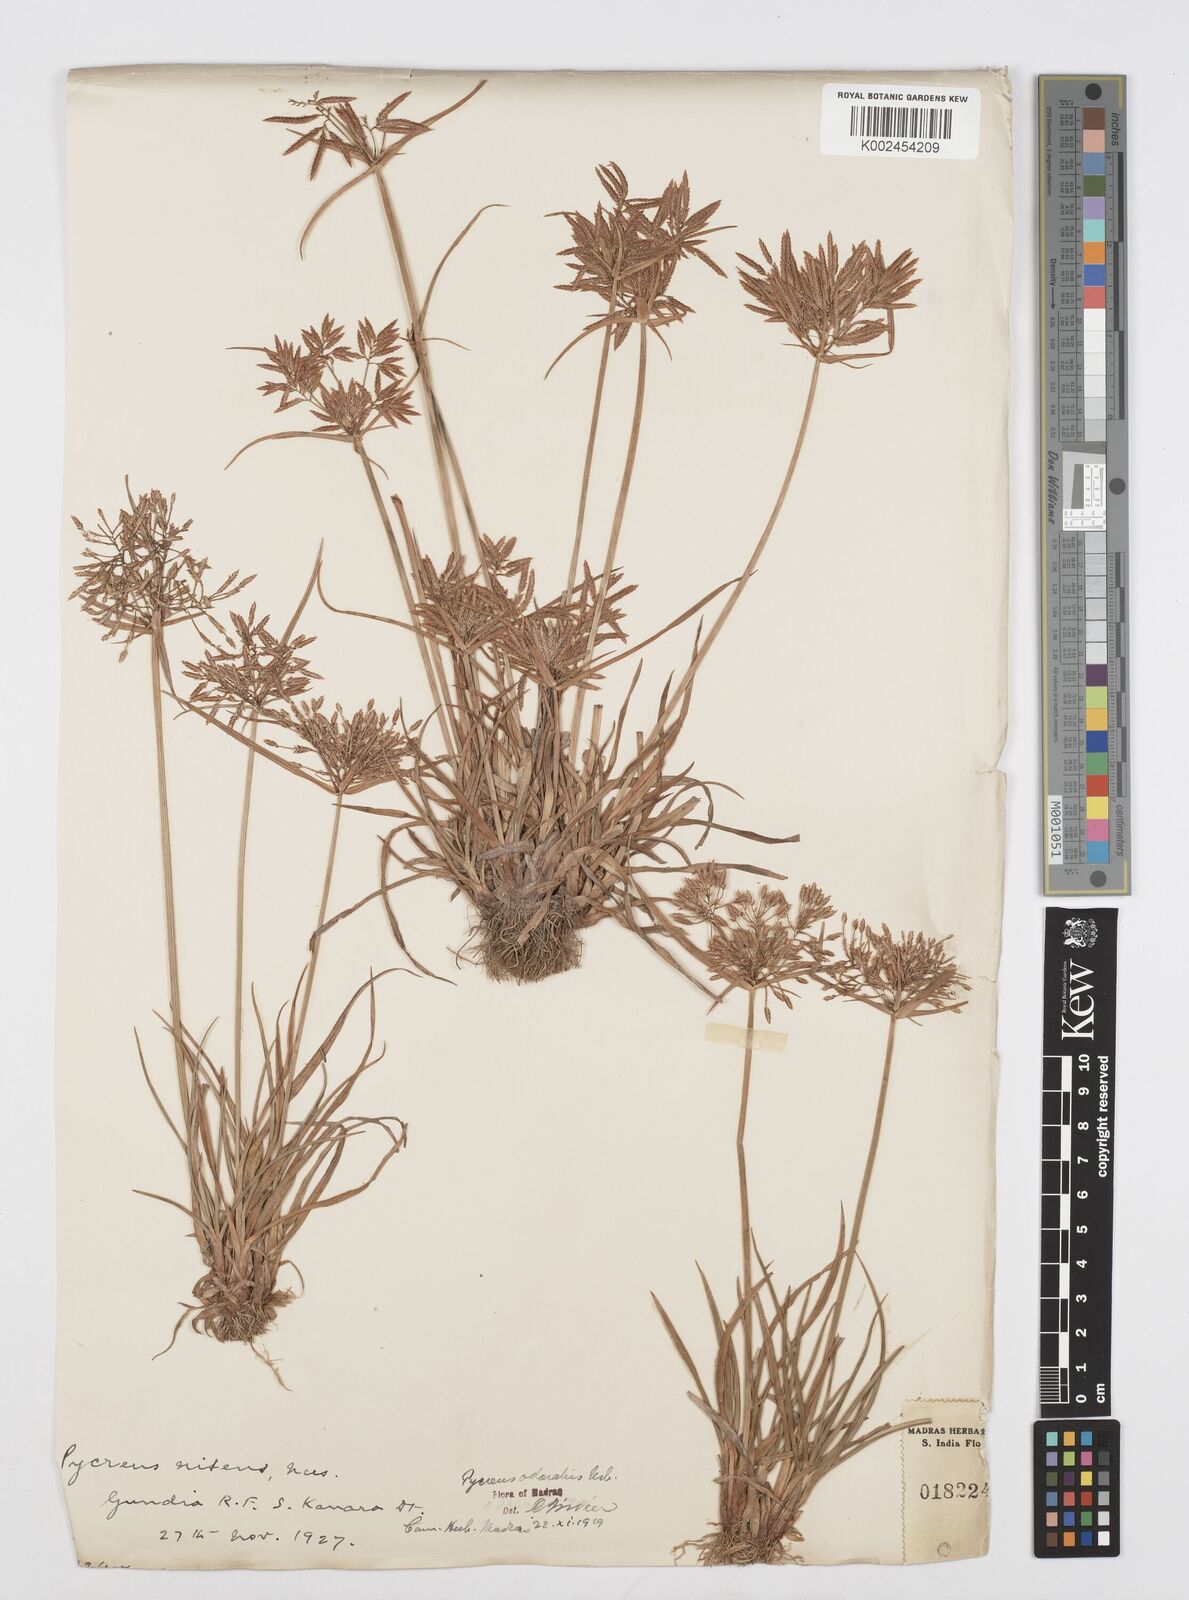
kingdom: Plantae
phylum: Tracheophyta
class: Liliopsida
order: Poales
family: Cyperaceae
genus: Cyperus
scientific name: Cyperus polystachyos
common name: Bunchy flat sedge
